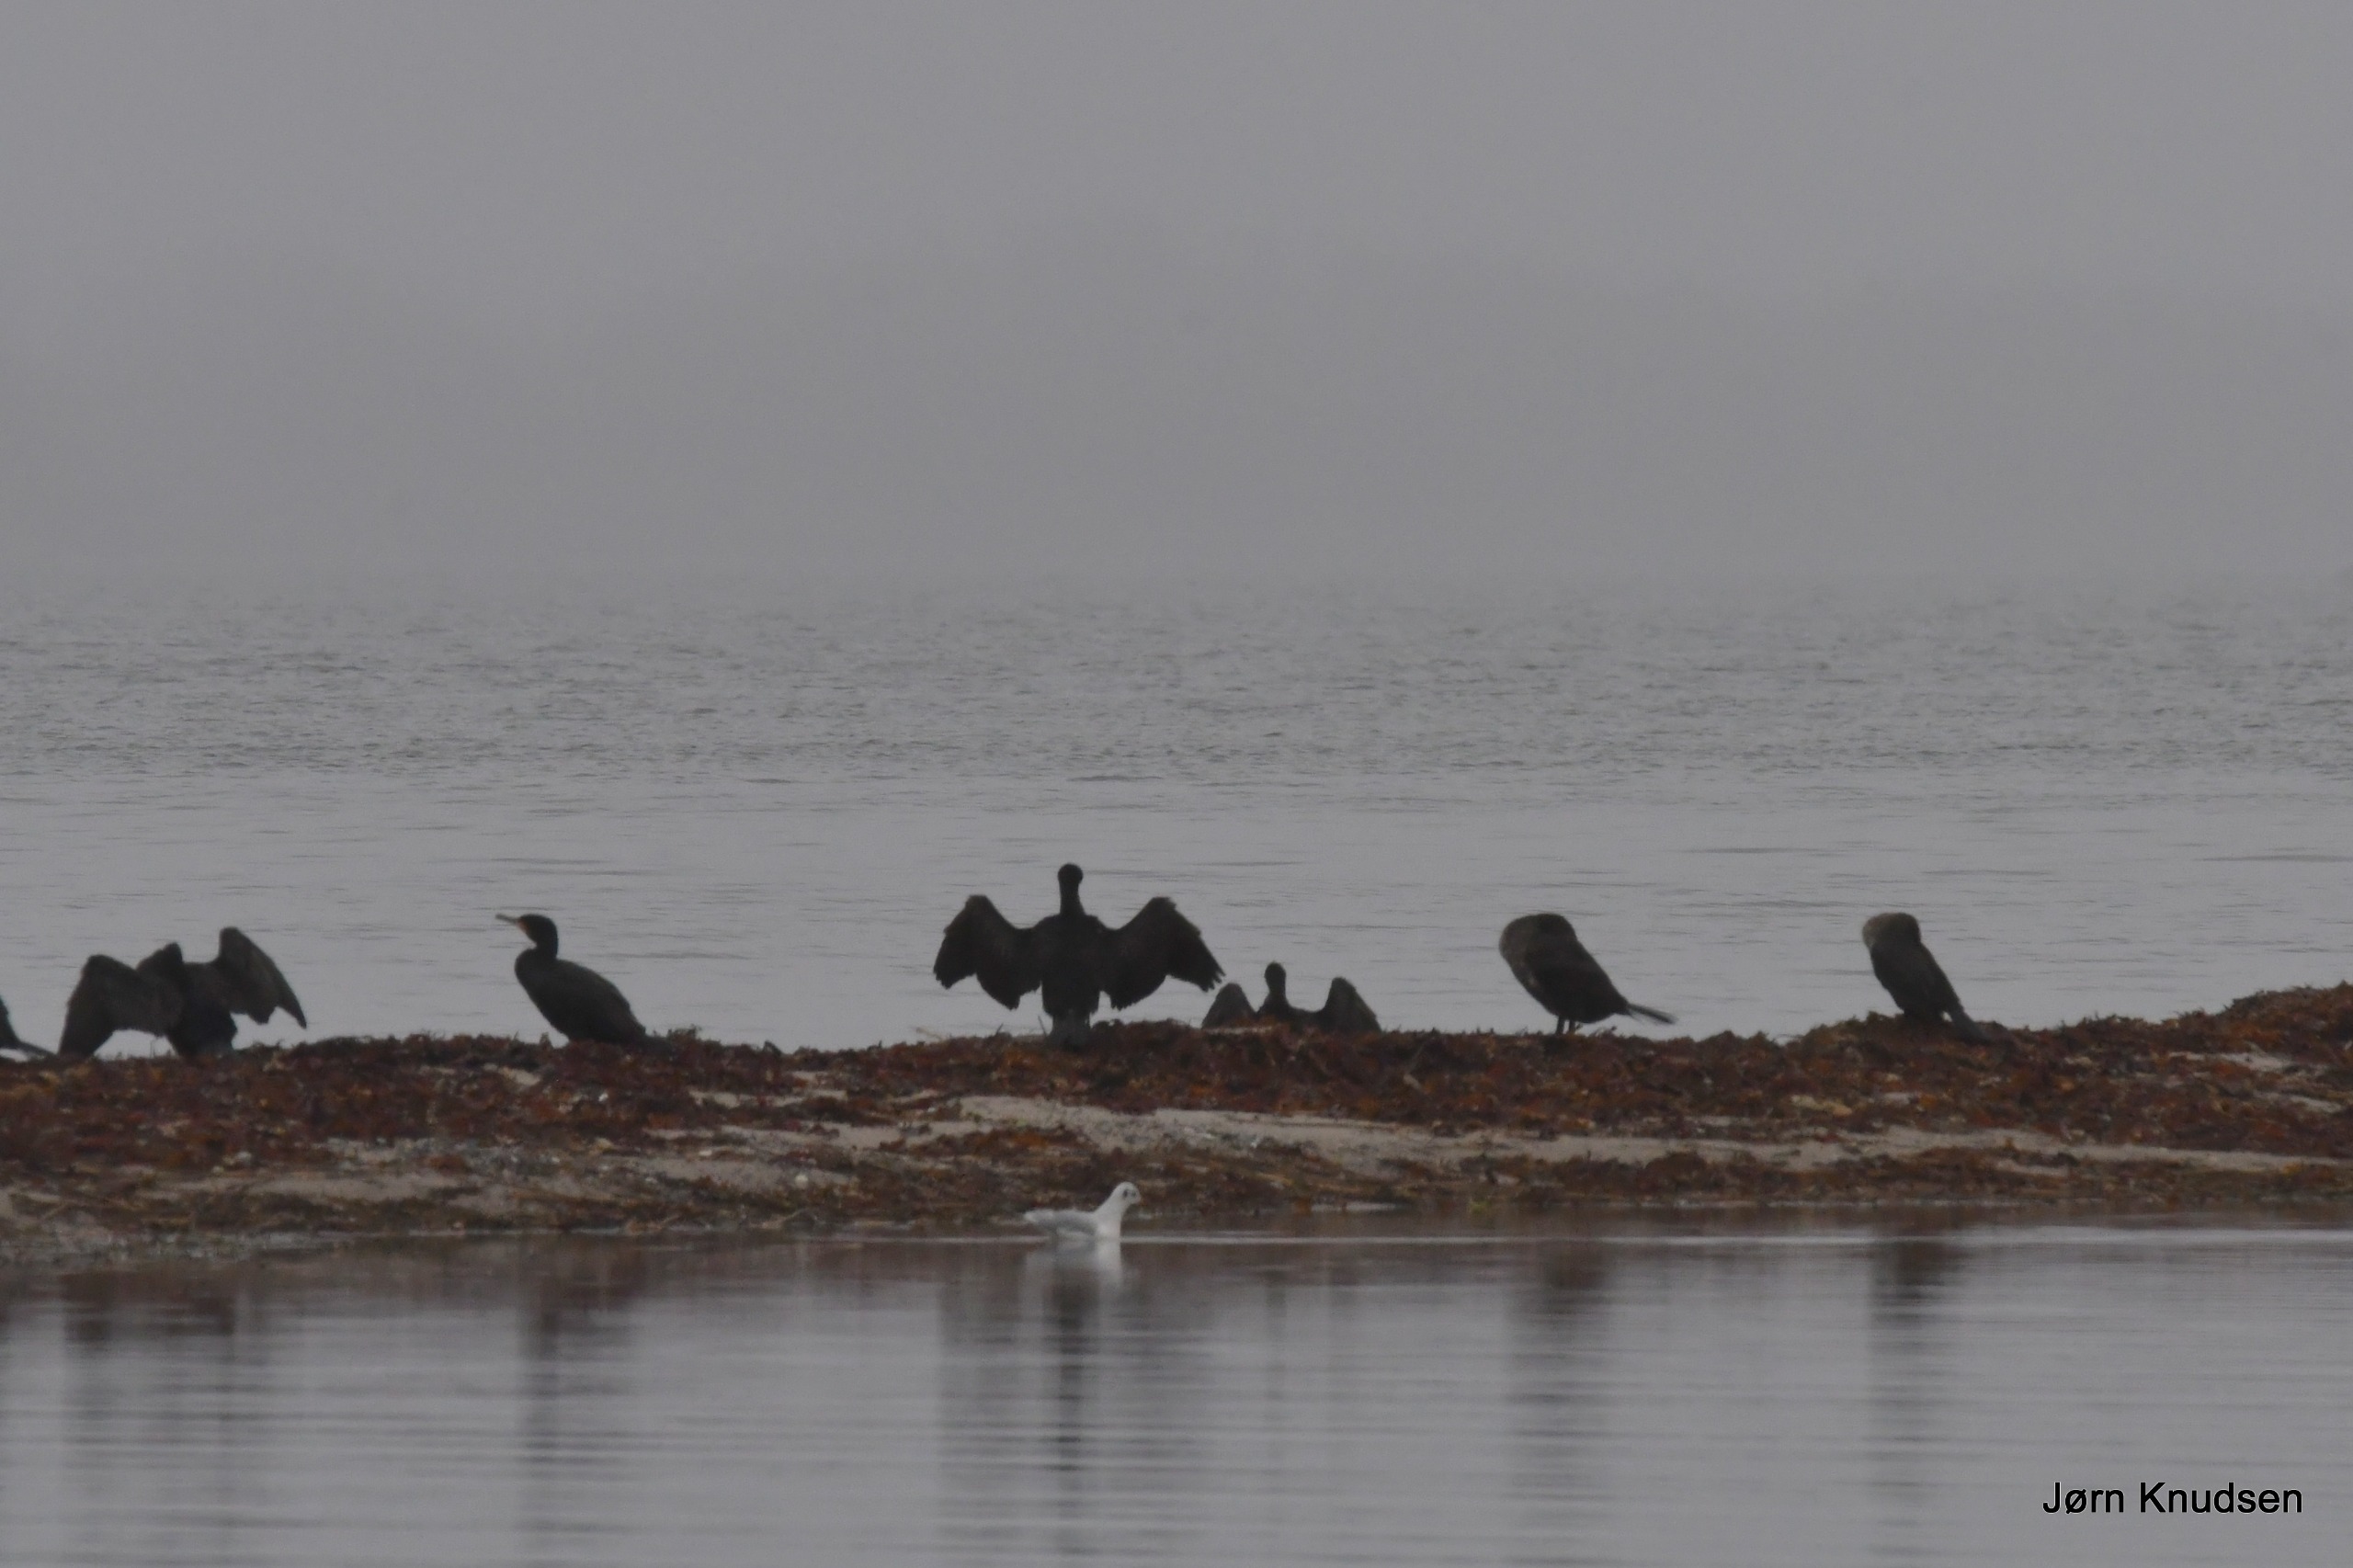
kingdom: Animalia
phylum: Chordata
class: Aves
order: Suliformes
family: Phalacrocoracidae
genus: Phalacrocorax
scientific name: Phalacrocorax carbo
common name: Skarv
